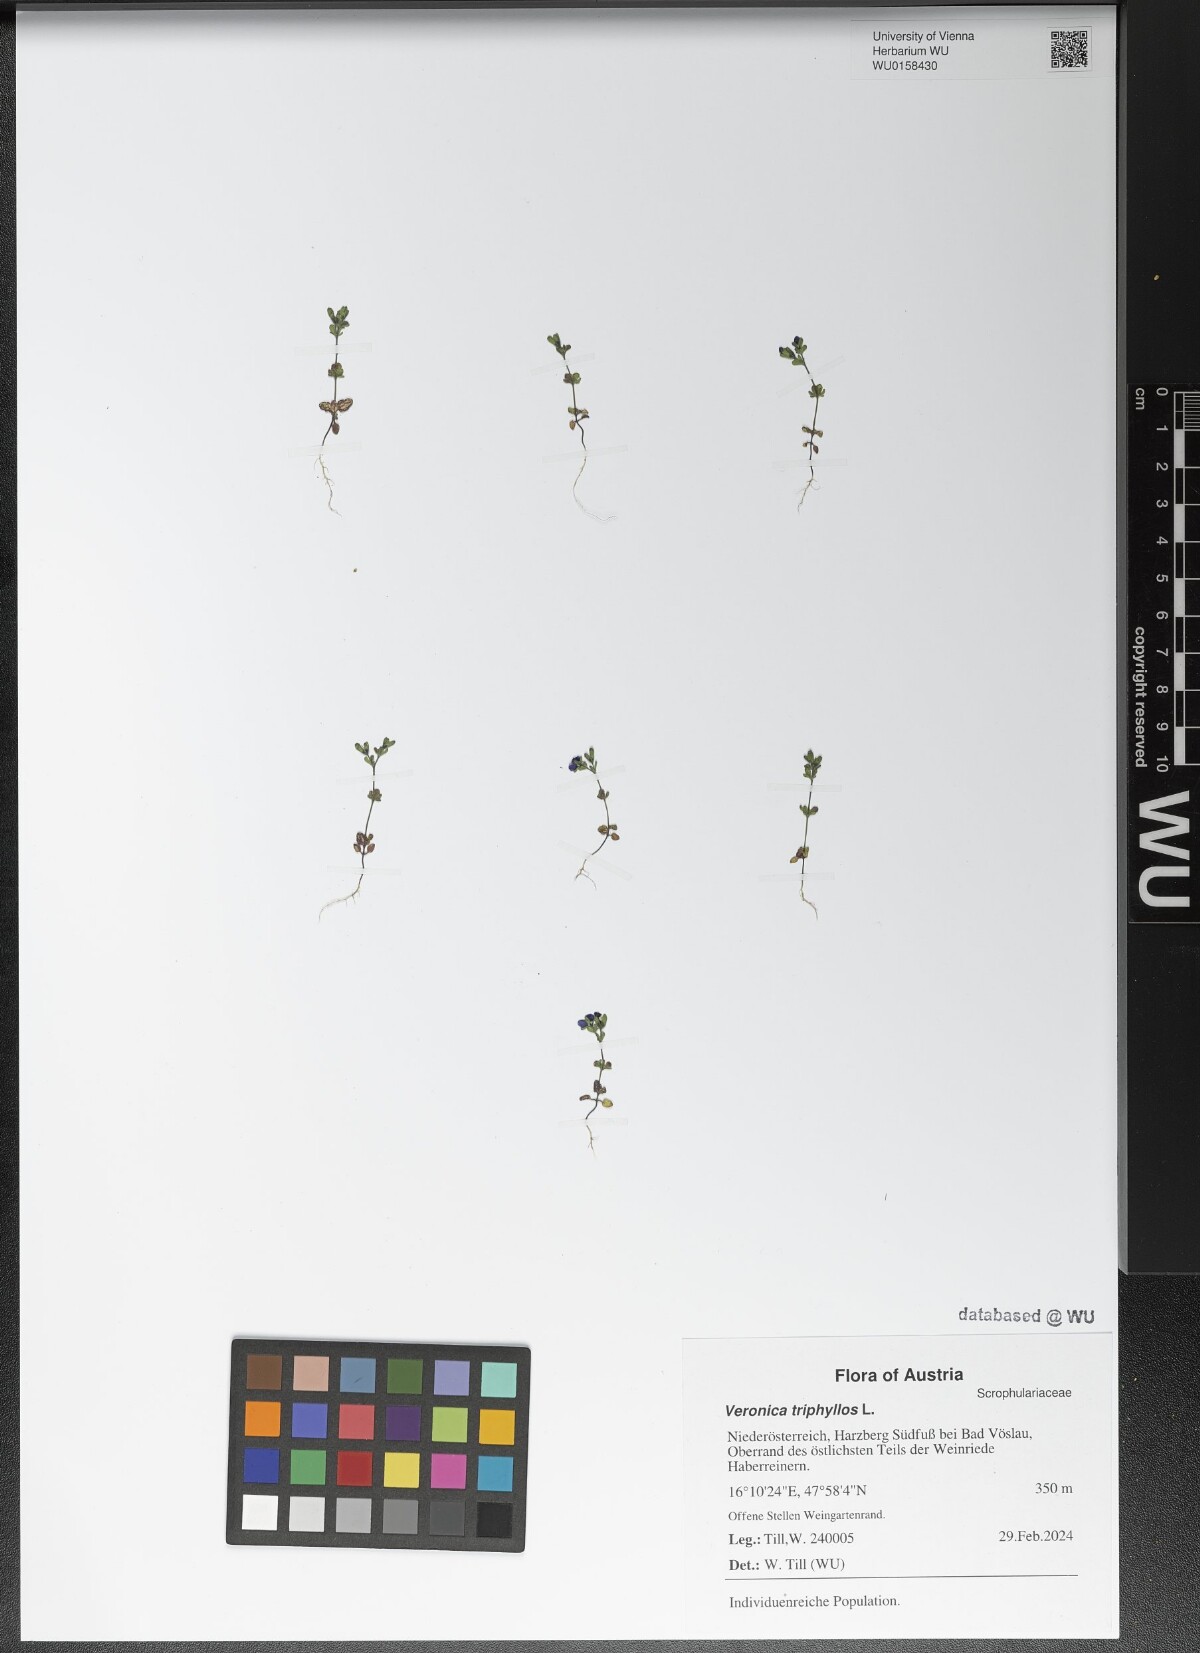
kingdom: Plantae
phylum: Tracheophyta
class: Magnoliopsida
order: Lamiales
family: Plantaginaceae
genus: Veronica
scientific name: Veronica triphyllos
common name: Fingered speedwell
